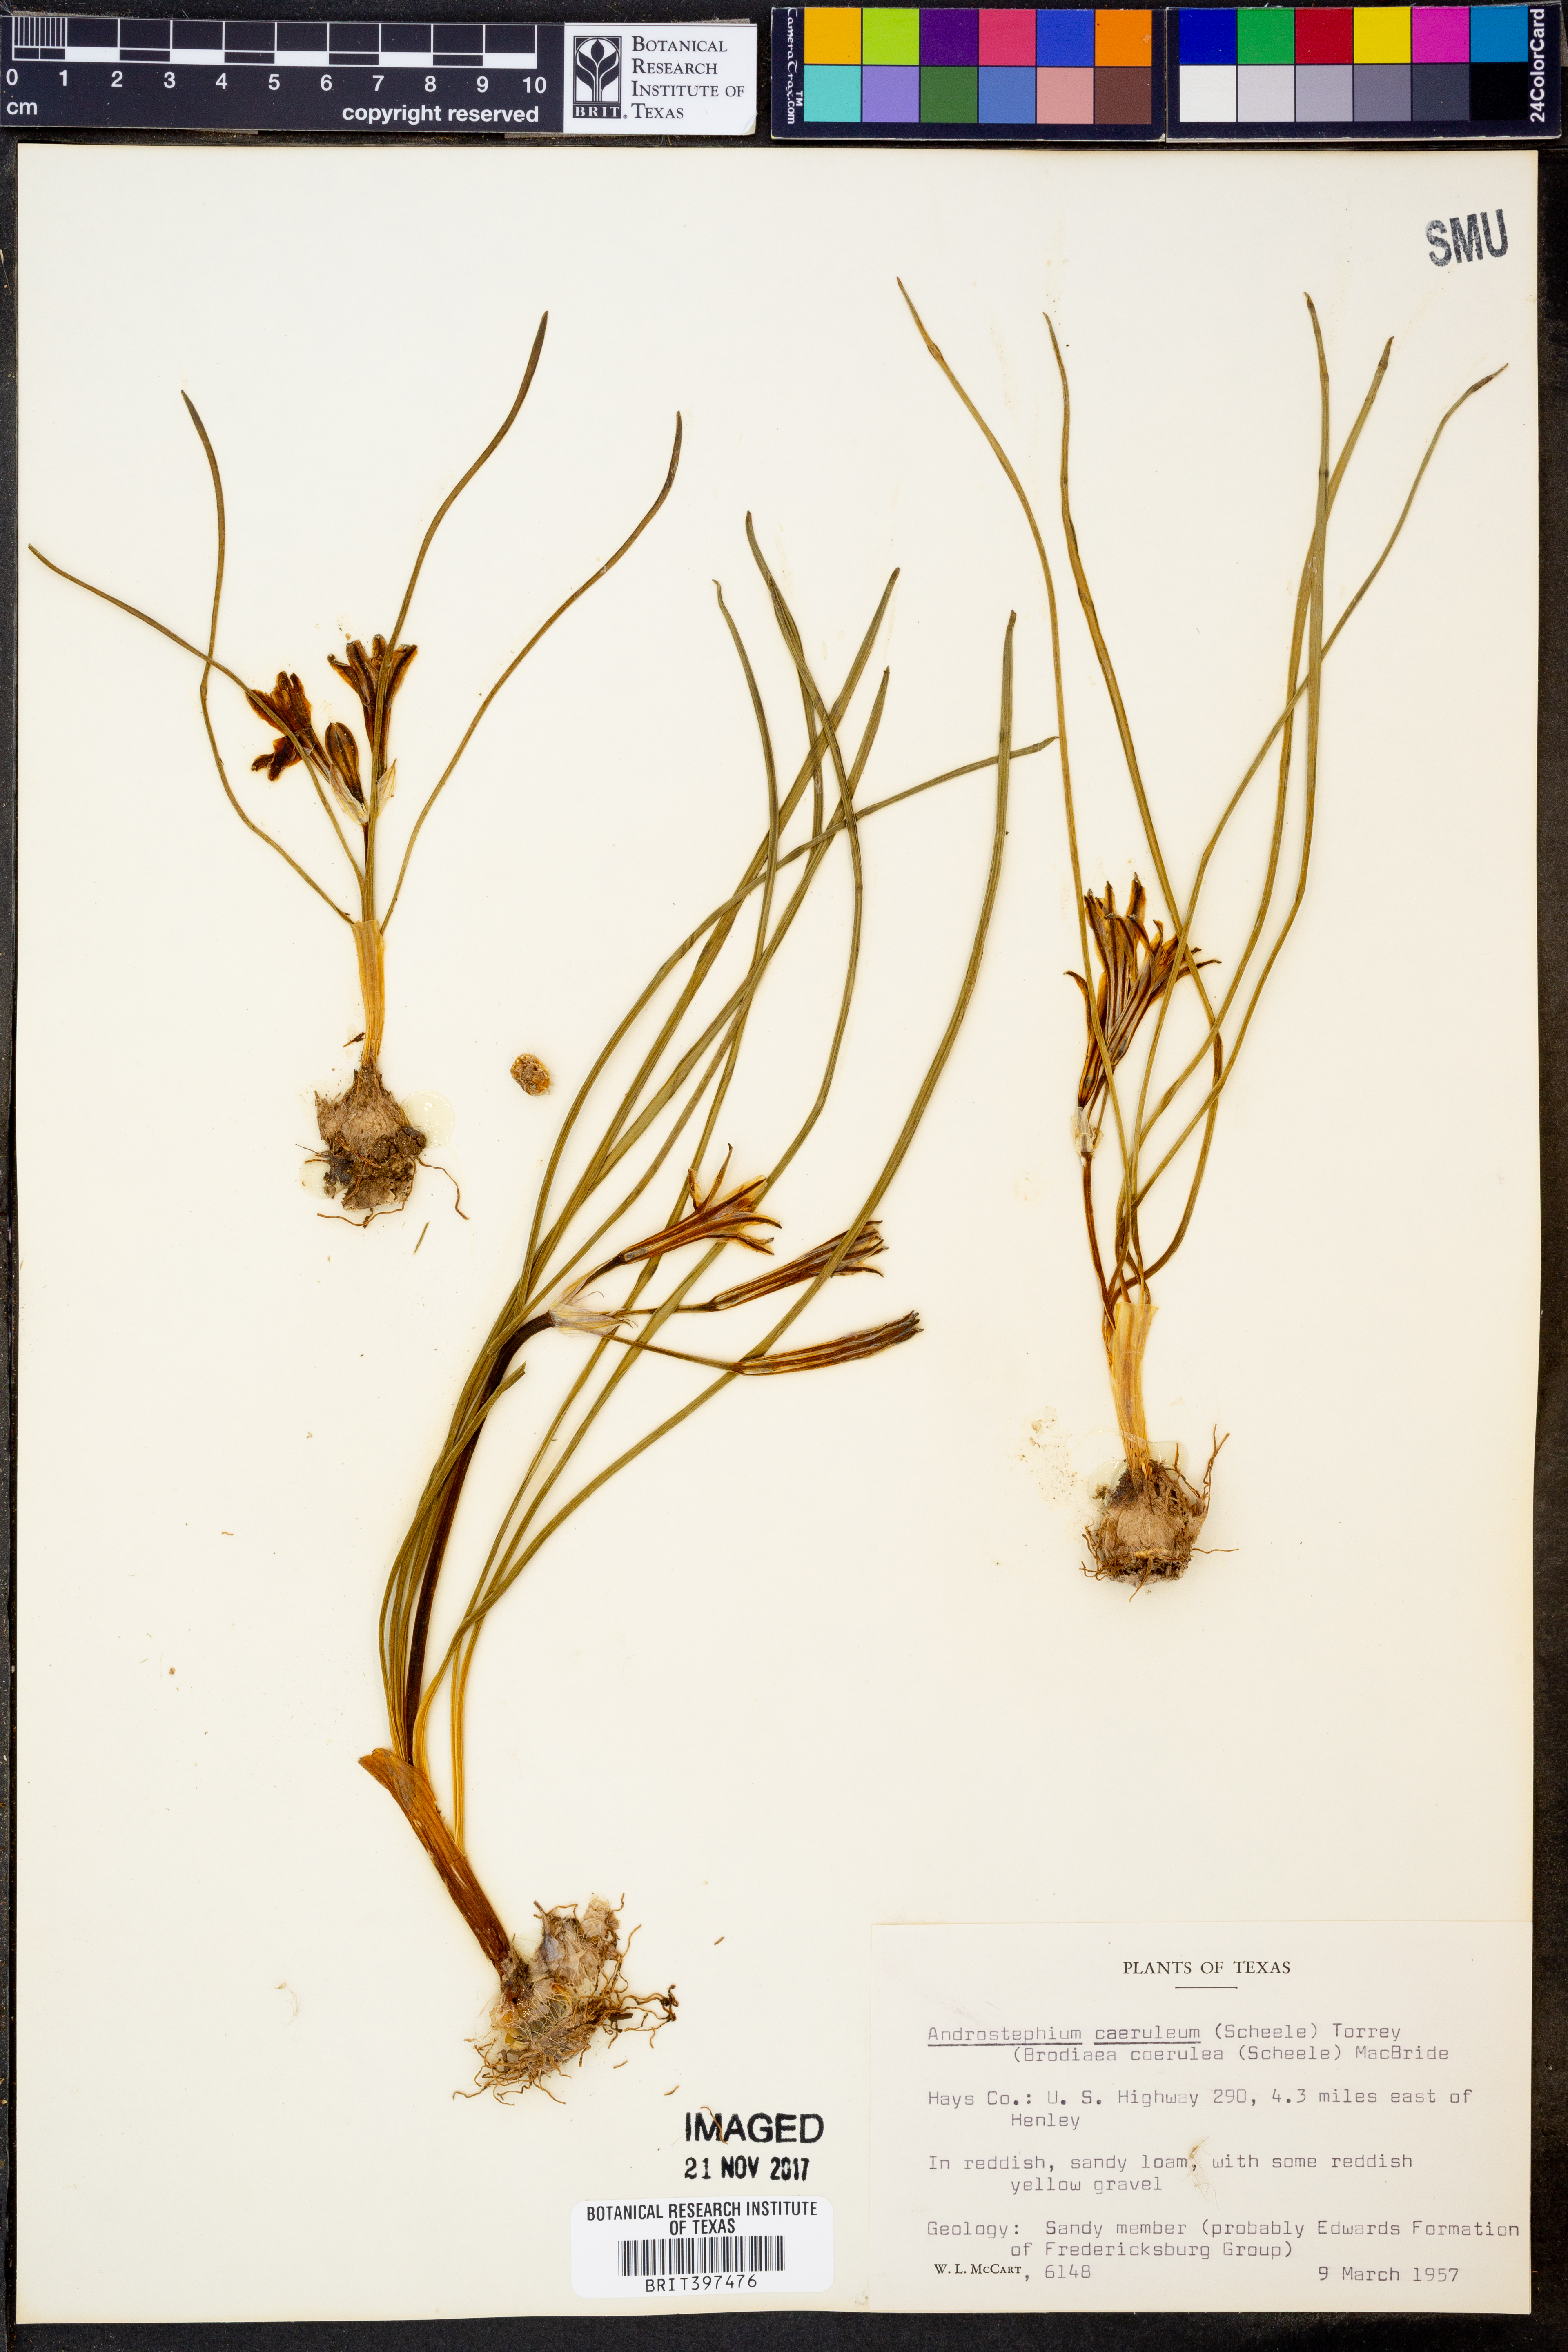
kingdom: Plantae
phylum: Tracheophyta
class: Liliopsida
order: Asparagales
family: Asparagaceae
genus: Androstephium
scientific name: Androstephium caeruleum
